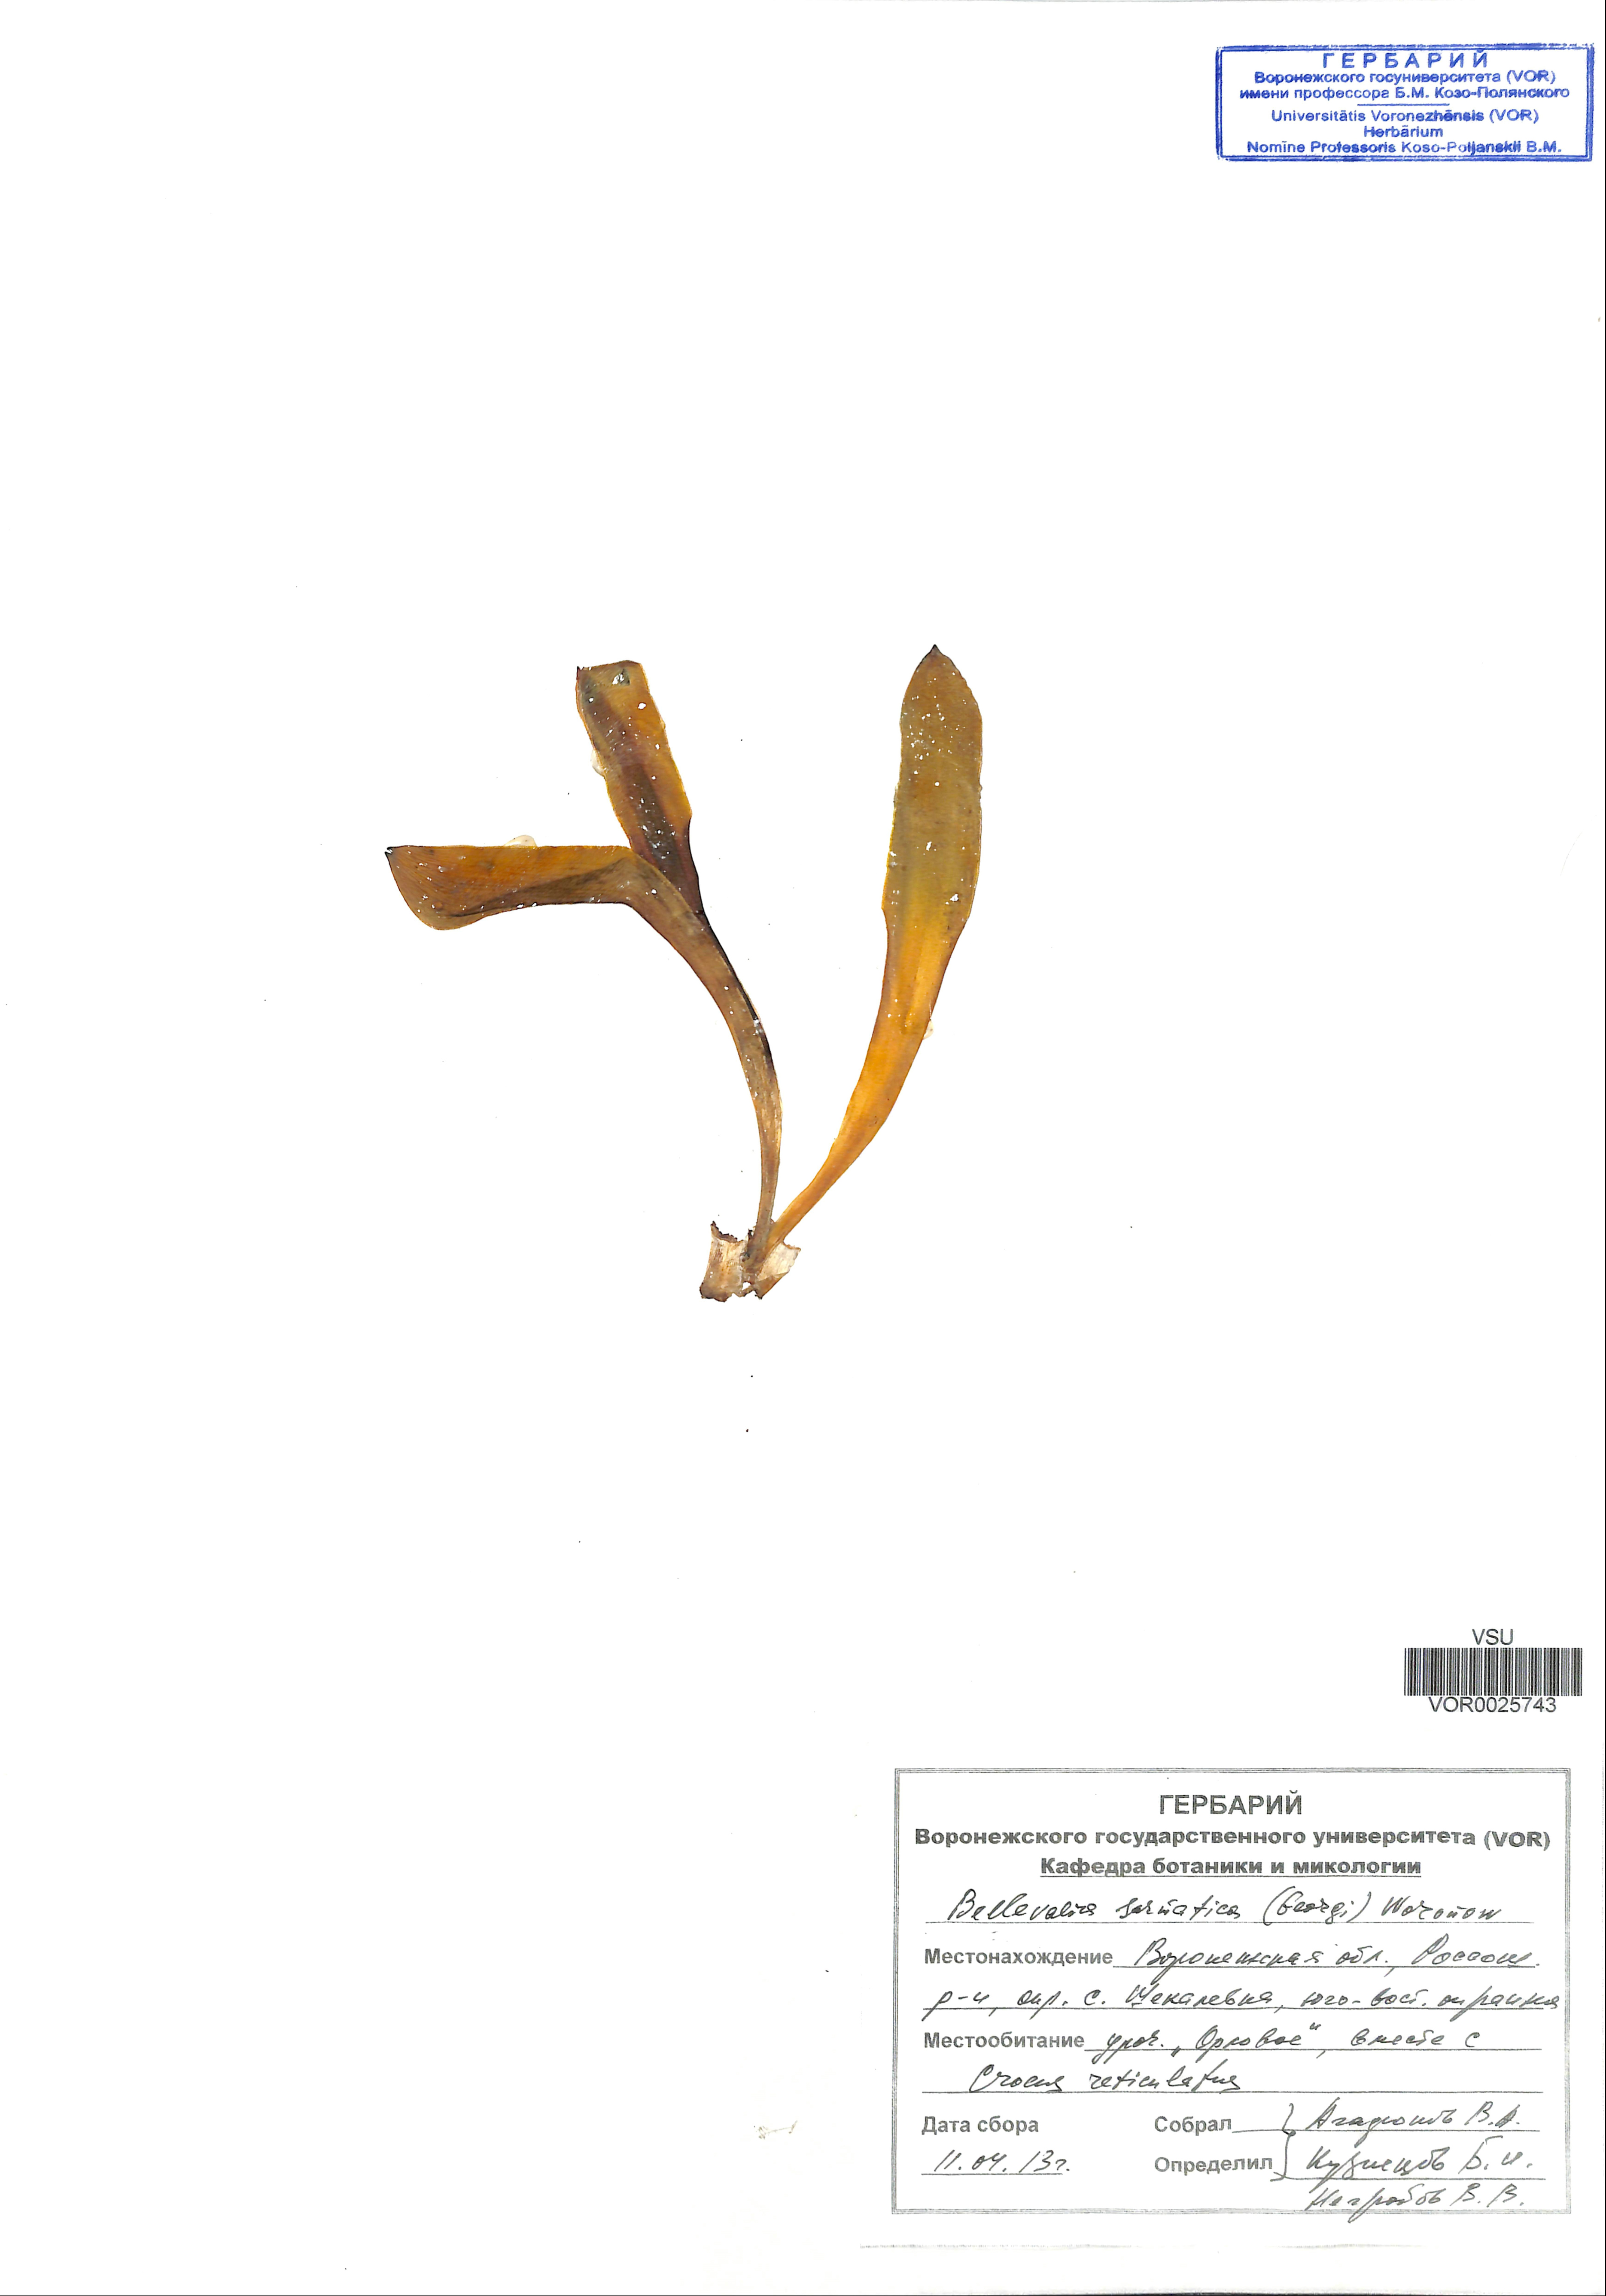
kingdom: Plantae
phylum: Tracheophyta
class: Liliopsida
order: Asparagales
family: Asparagaceae
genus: Bellevalia
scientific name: Bellevalia speciosa
